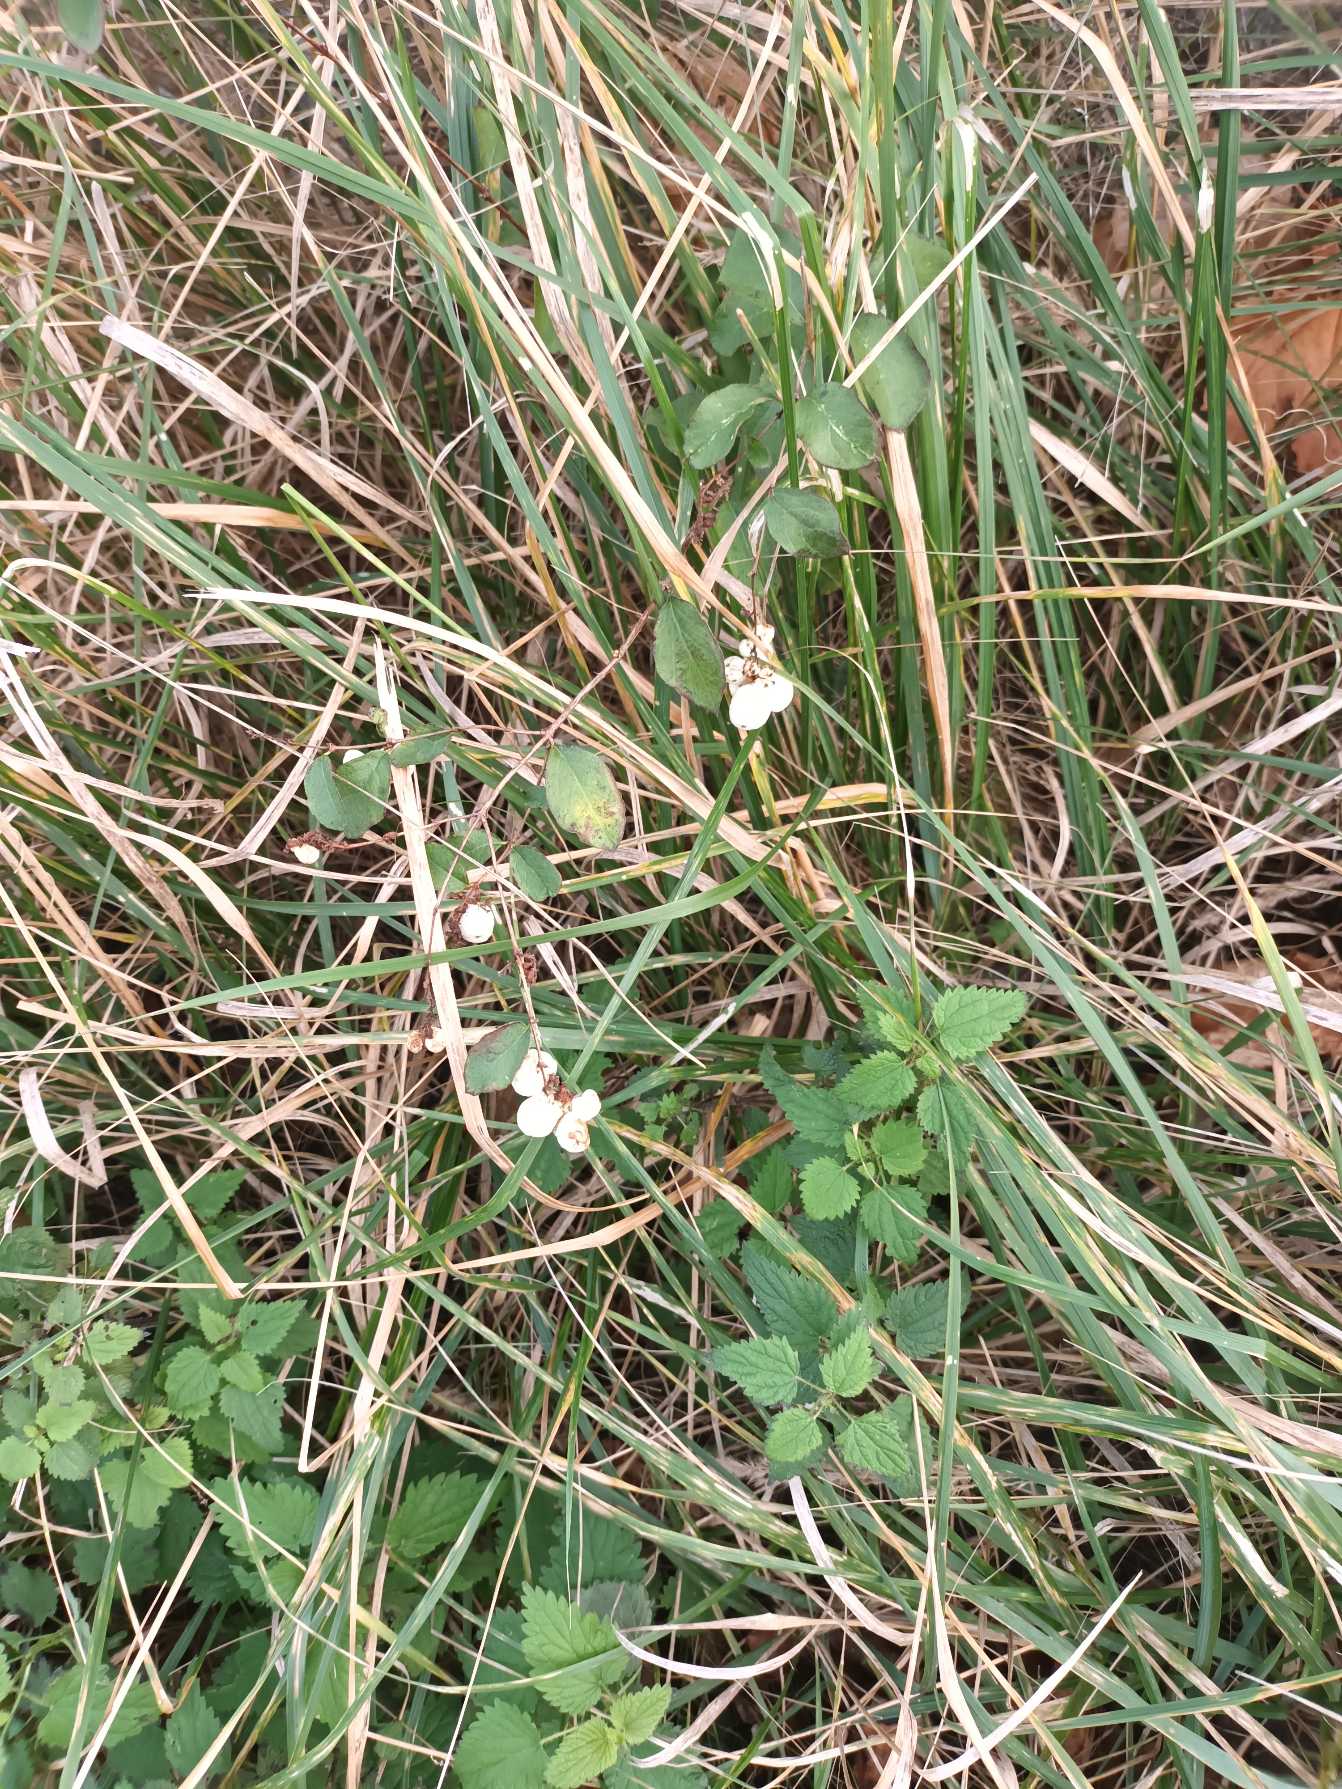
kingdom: Plantae
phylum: Tracheophyta
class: Magnoliopsida
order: Dipsacales
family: Caprifoliaceae
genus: Symphoricarpos
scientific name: Symphoricarpos albus
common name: Almindelig snebær
